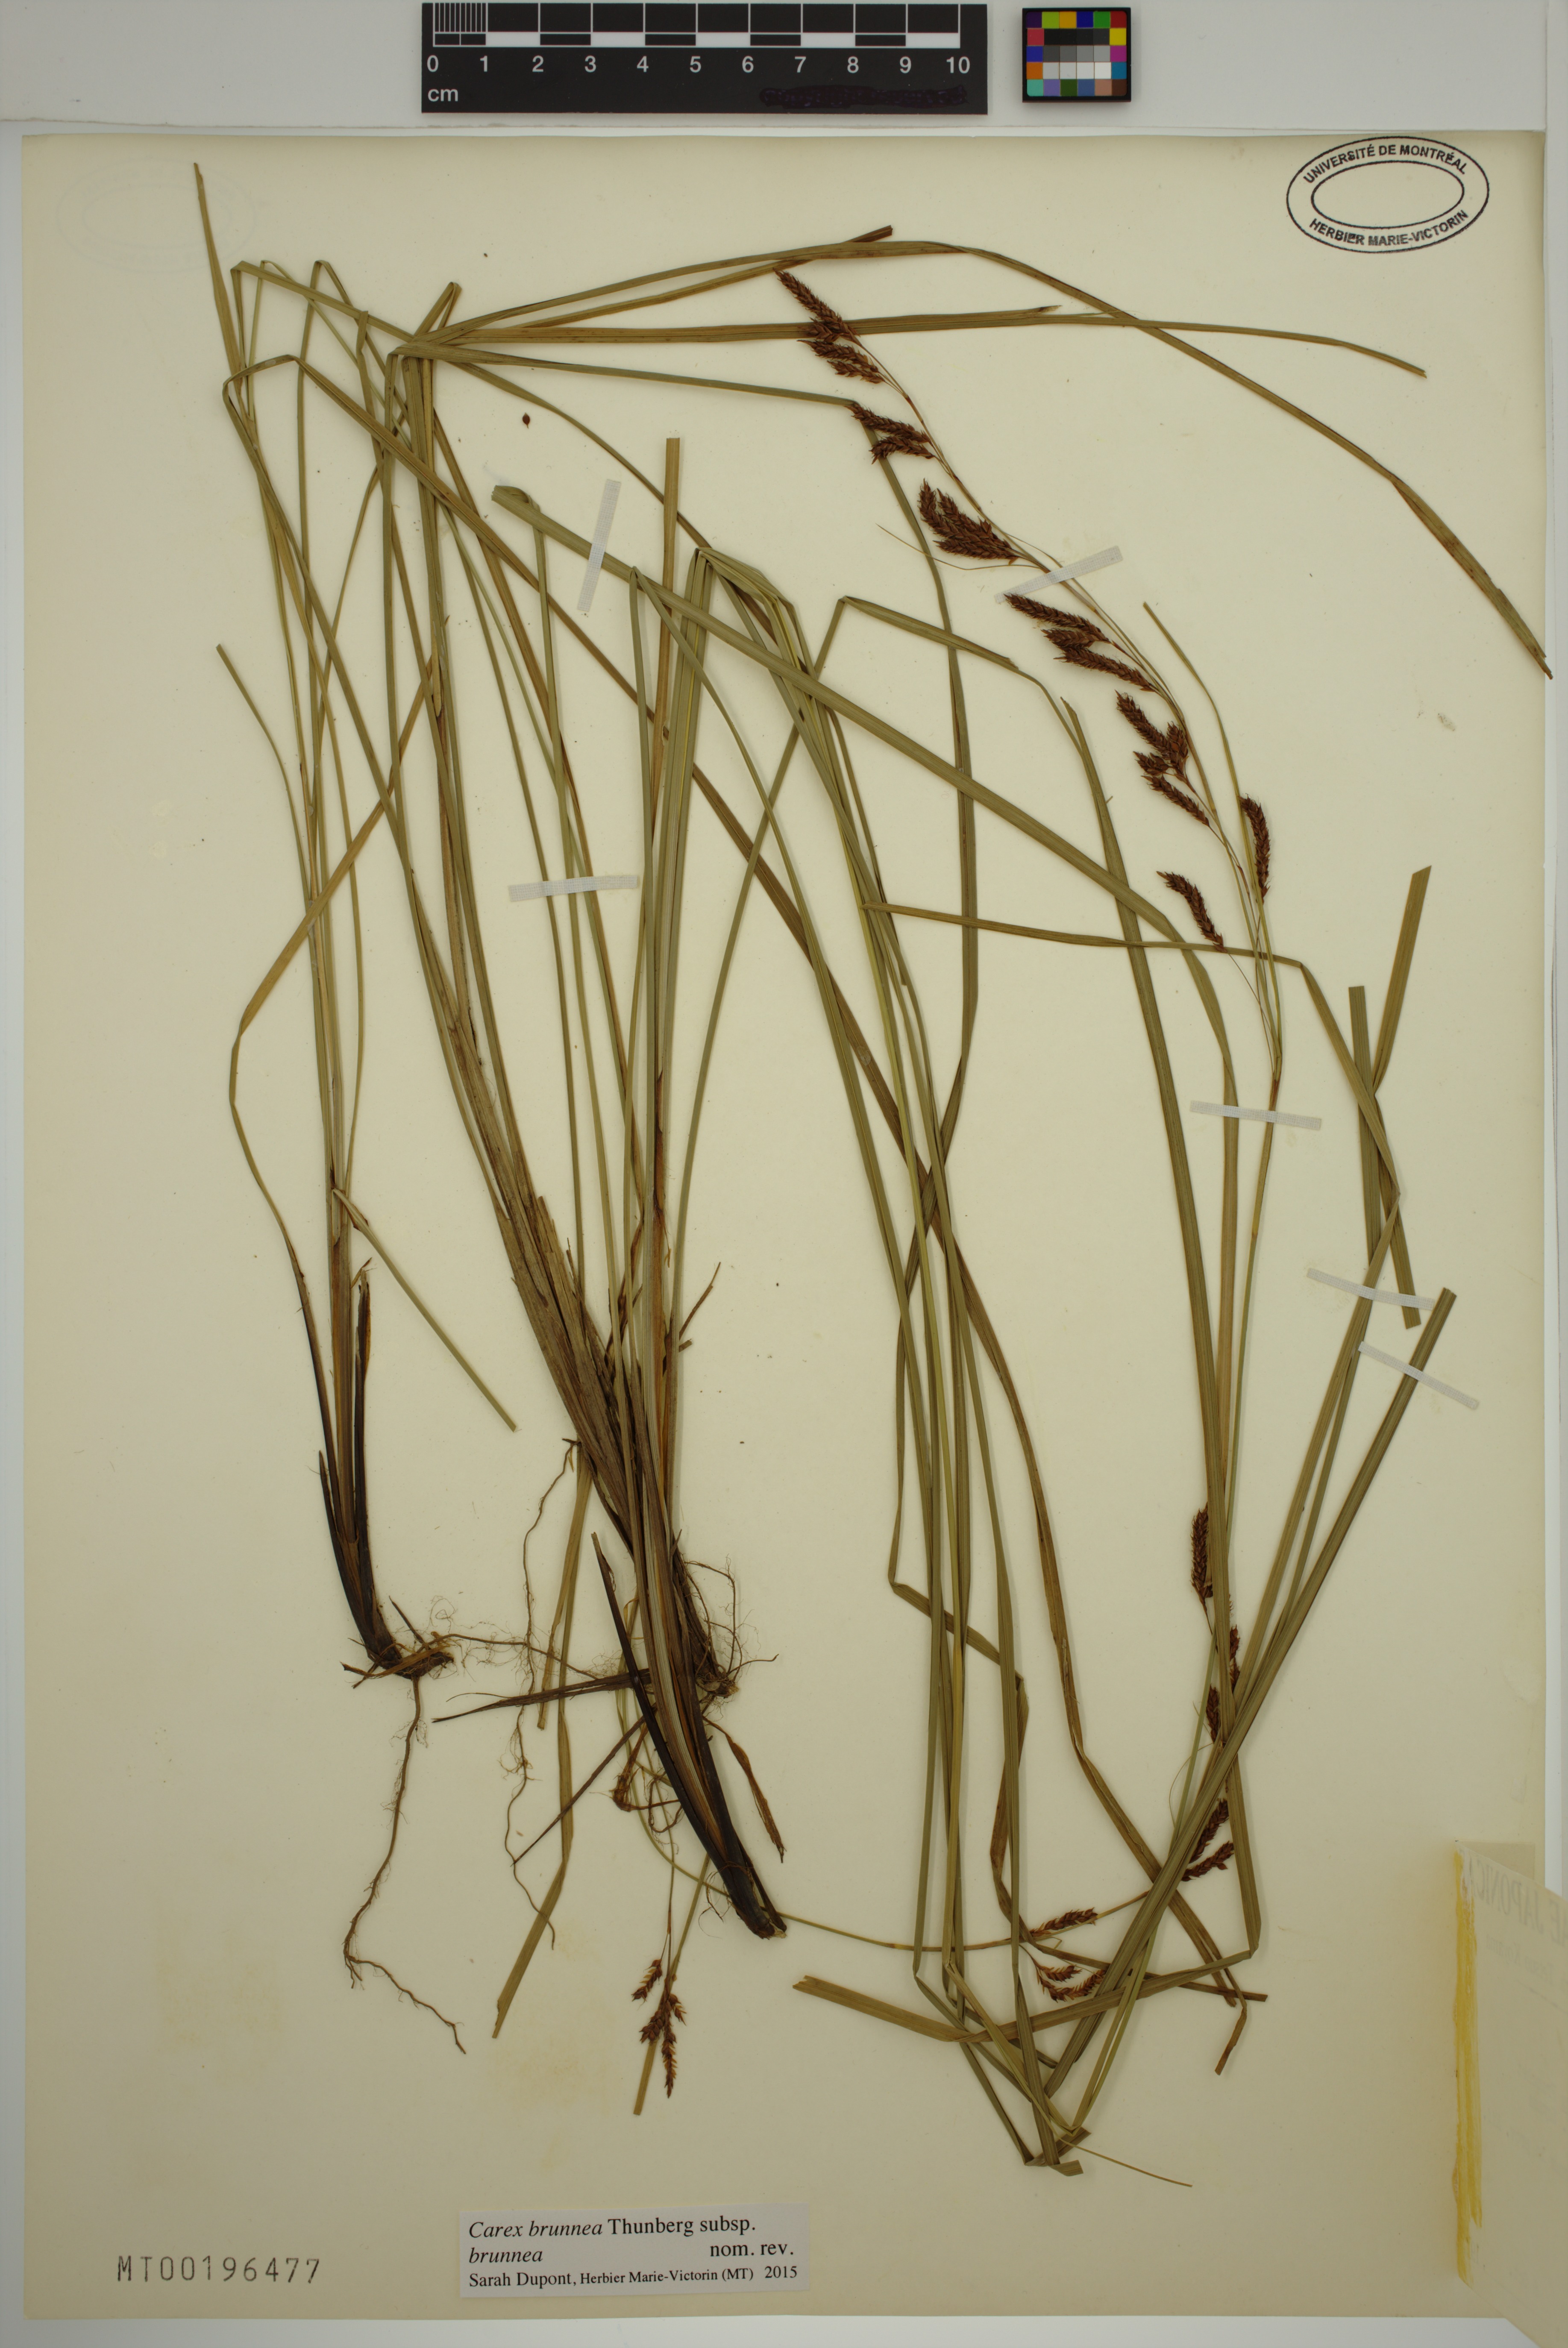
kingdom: Plantae
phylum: Tracheophyta
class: Liliopsida
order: Poales
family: Cyperaceae
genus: Carex
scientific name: Carex brunnea
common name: Greater brown sedge
